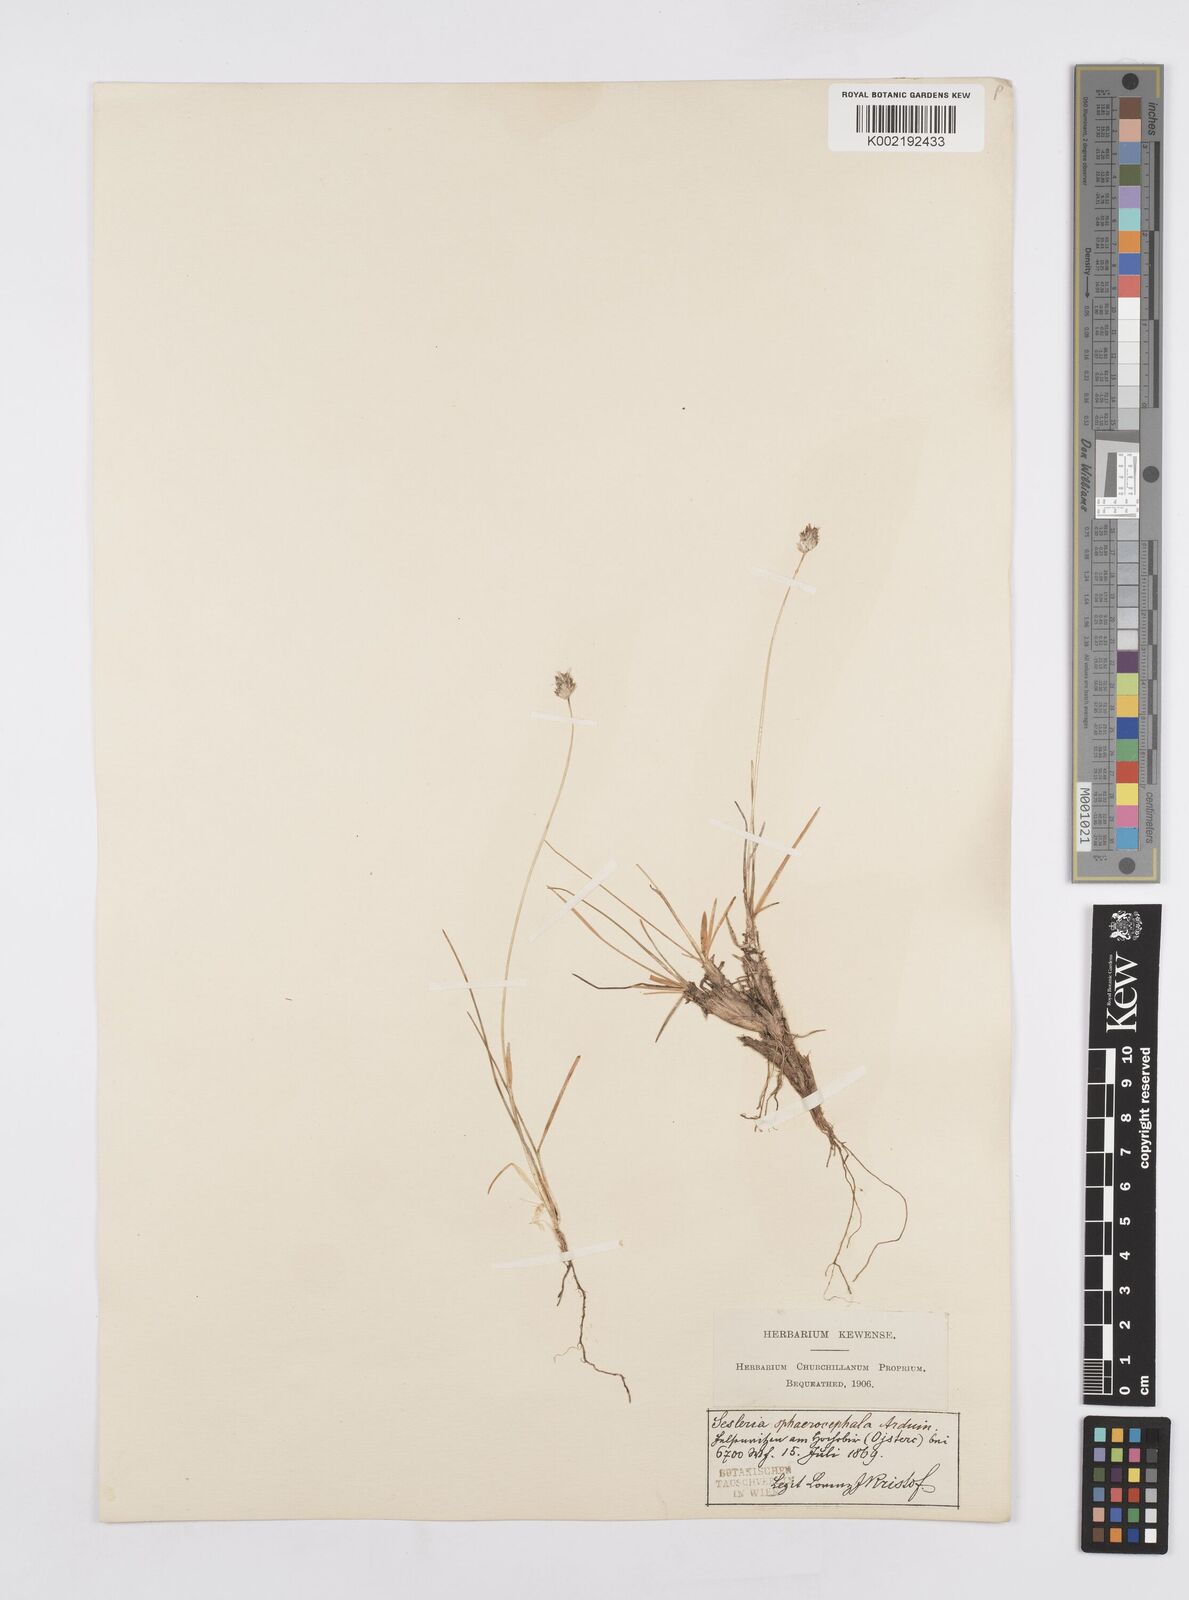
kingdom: Plantae
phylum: Tracheophyta
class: Liliopsida
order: Poales
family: Poaceae
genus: Sesleriella
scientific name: Sesleriella sphaerocephala
